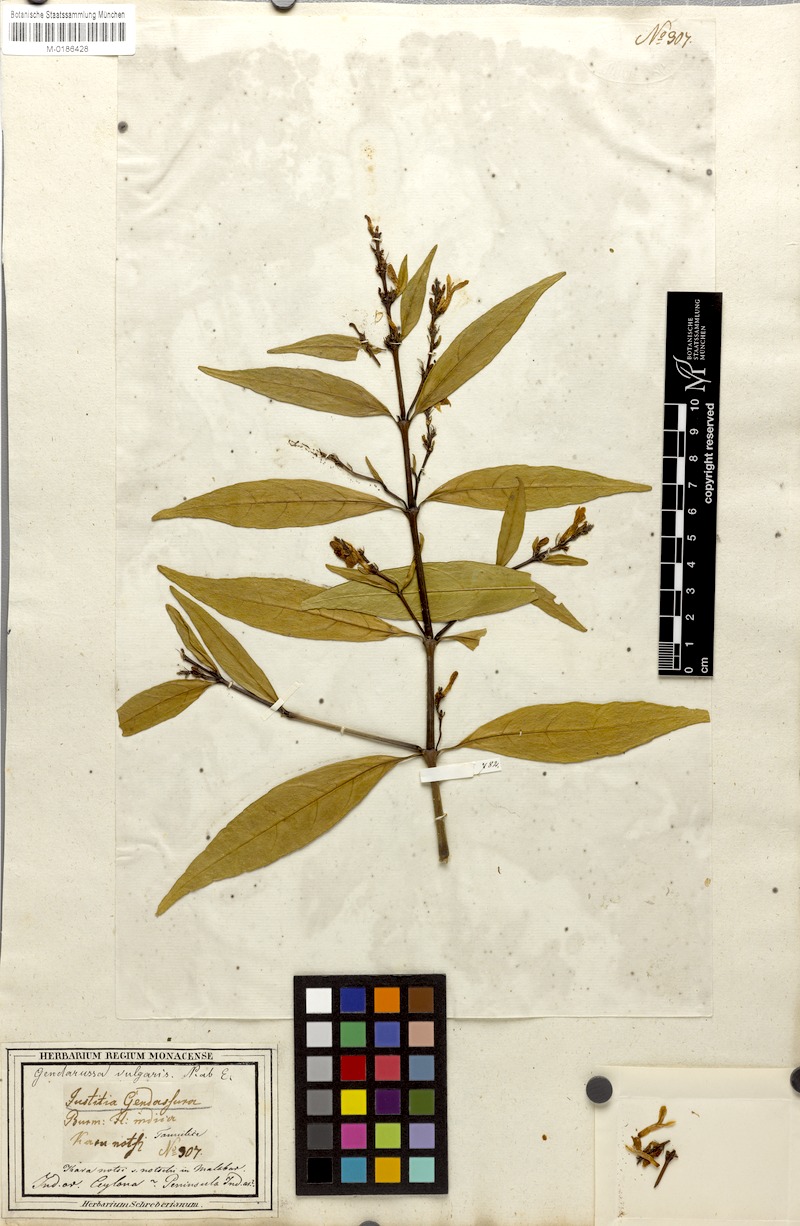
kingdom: Plantae
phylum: Tracheophyta
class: Magnoliopsida
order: Lamiales
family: Acanthaceae
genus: Justicia
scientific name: Justicia gendarussa
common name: Warer willow
